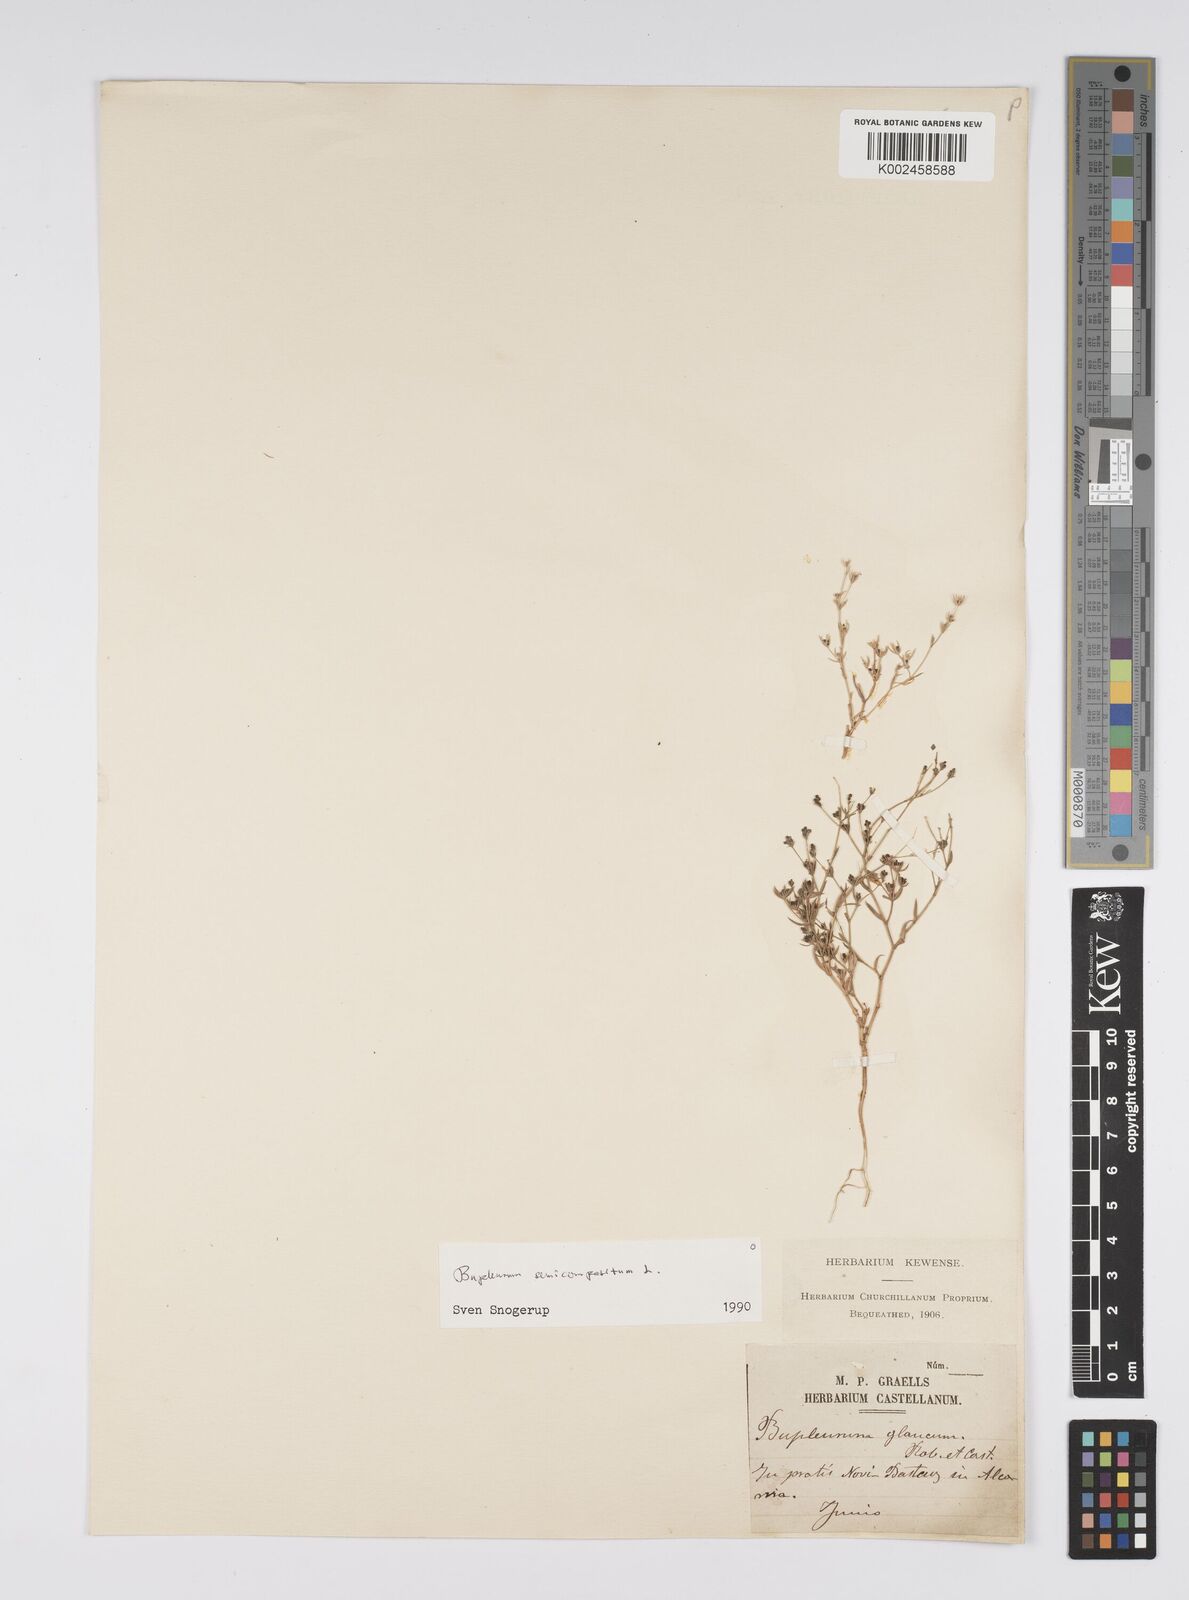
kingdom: Plantae
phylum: Tracheophyta
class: Magnoliopsida
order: Apiales
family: Apiaceae
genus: Bupleurum
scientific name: Bupleurum semicompositum
